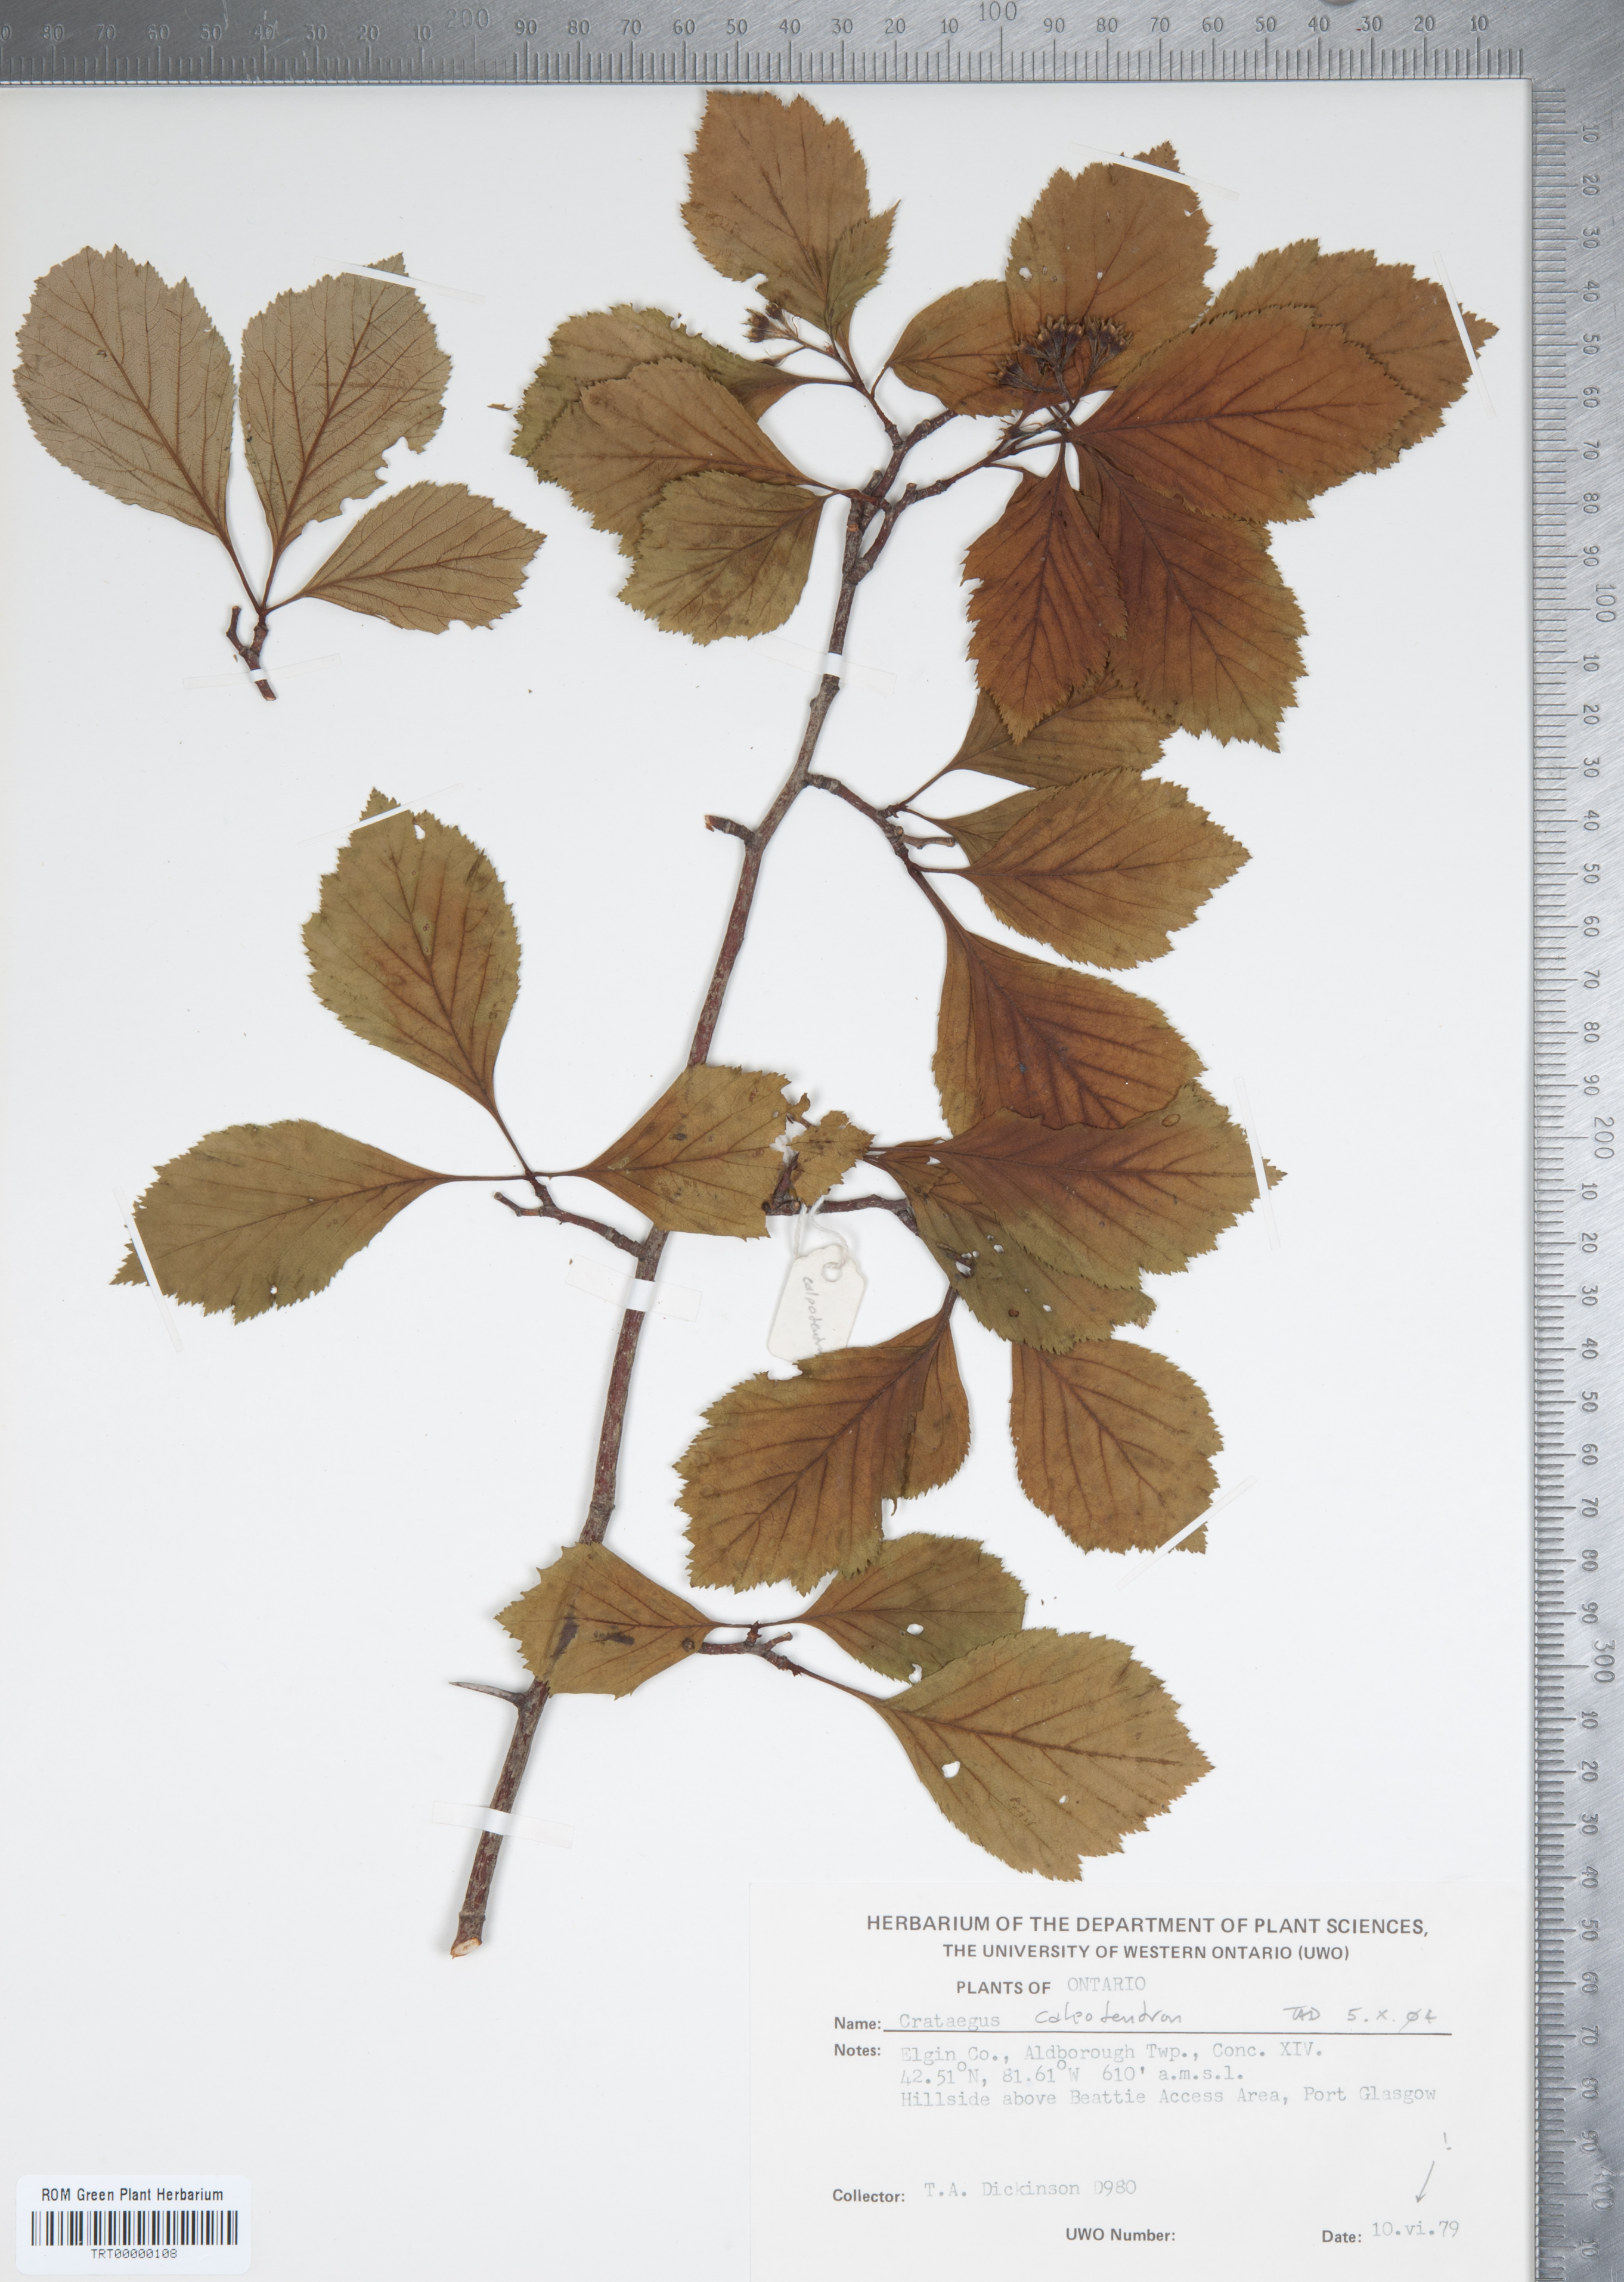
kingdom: Plantae
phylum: Tracheophyta
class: Magnoliopsida
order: Rosales
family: Rosaceae
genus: Crataegus
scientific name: Crataegus calpodendron
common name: Pear hawthorn
